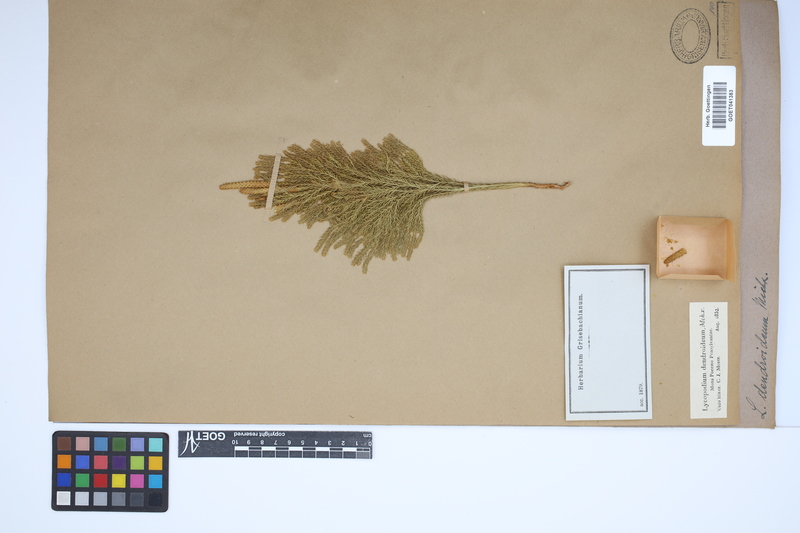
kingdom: Plantae
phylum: Tracheophyta
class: Lycopodiopsida
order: Lycopodiales
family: Lycopodiaceae
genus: Dendrolycopodium
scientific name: Dendrolycopodium dendroideum
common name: Northern tree-clubmoss
